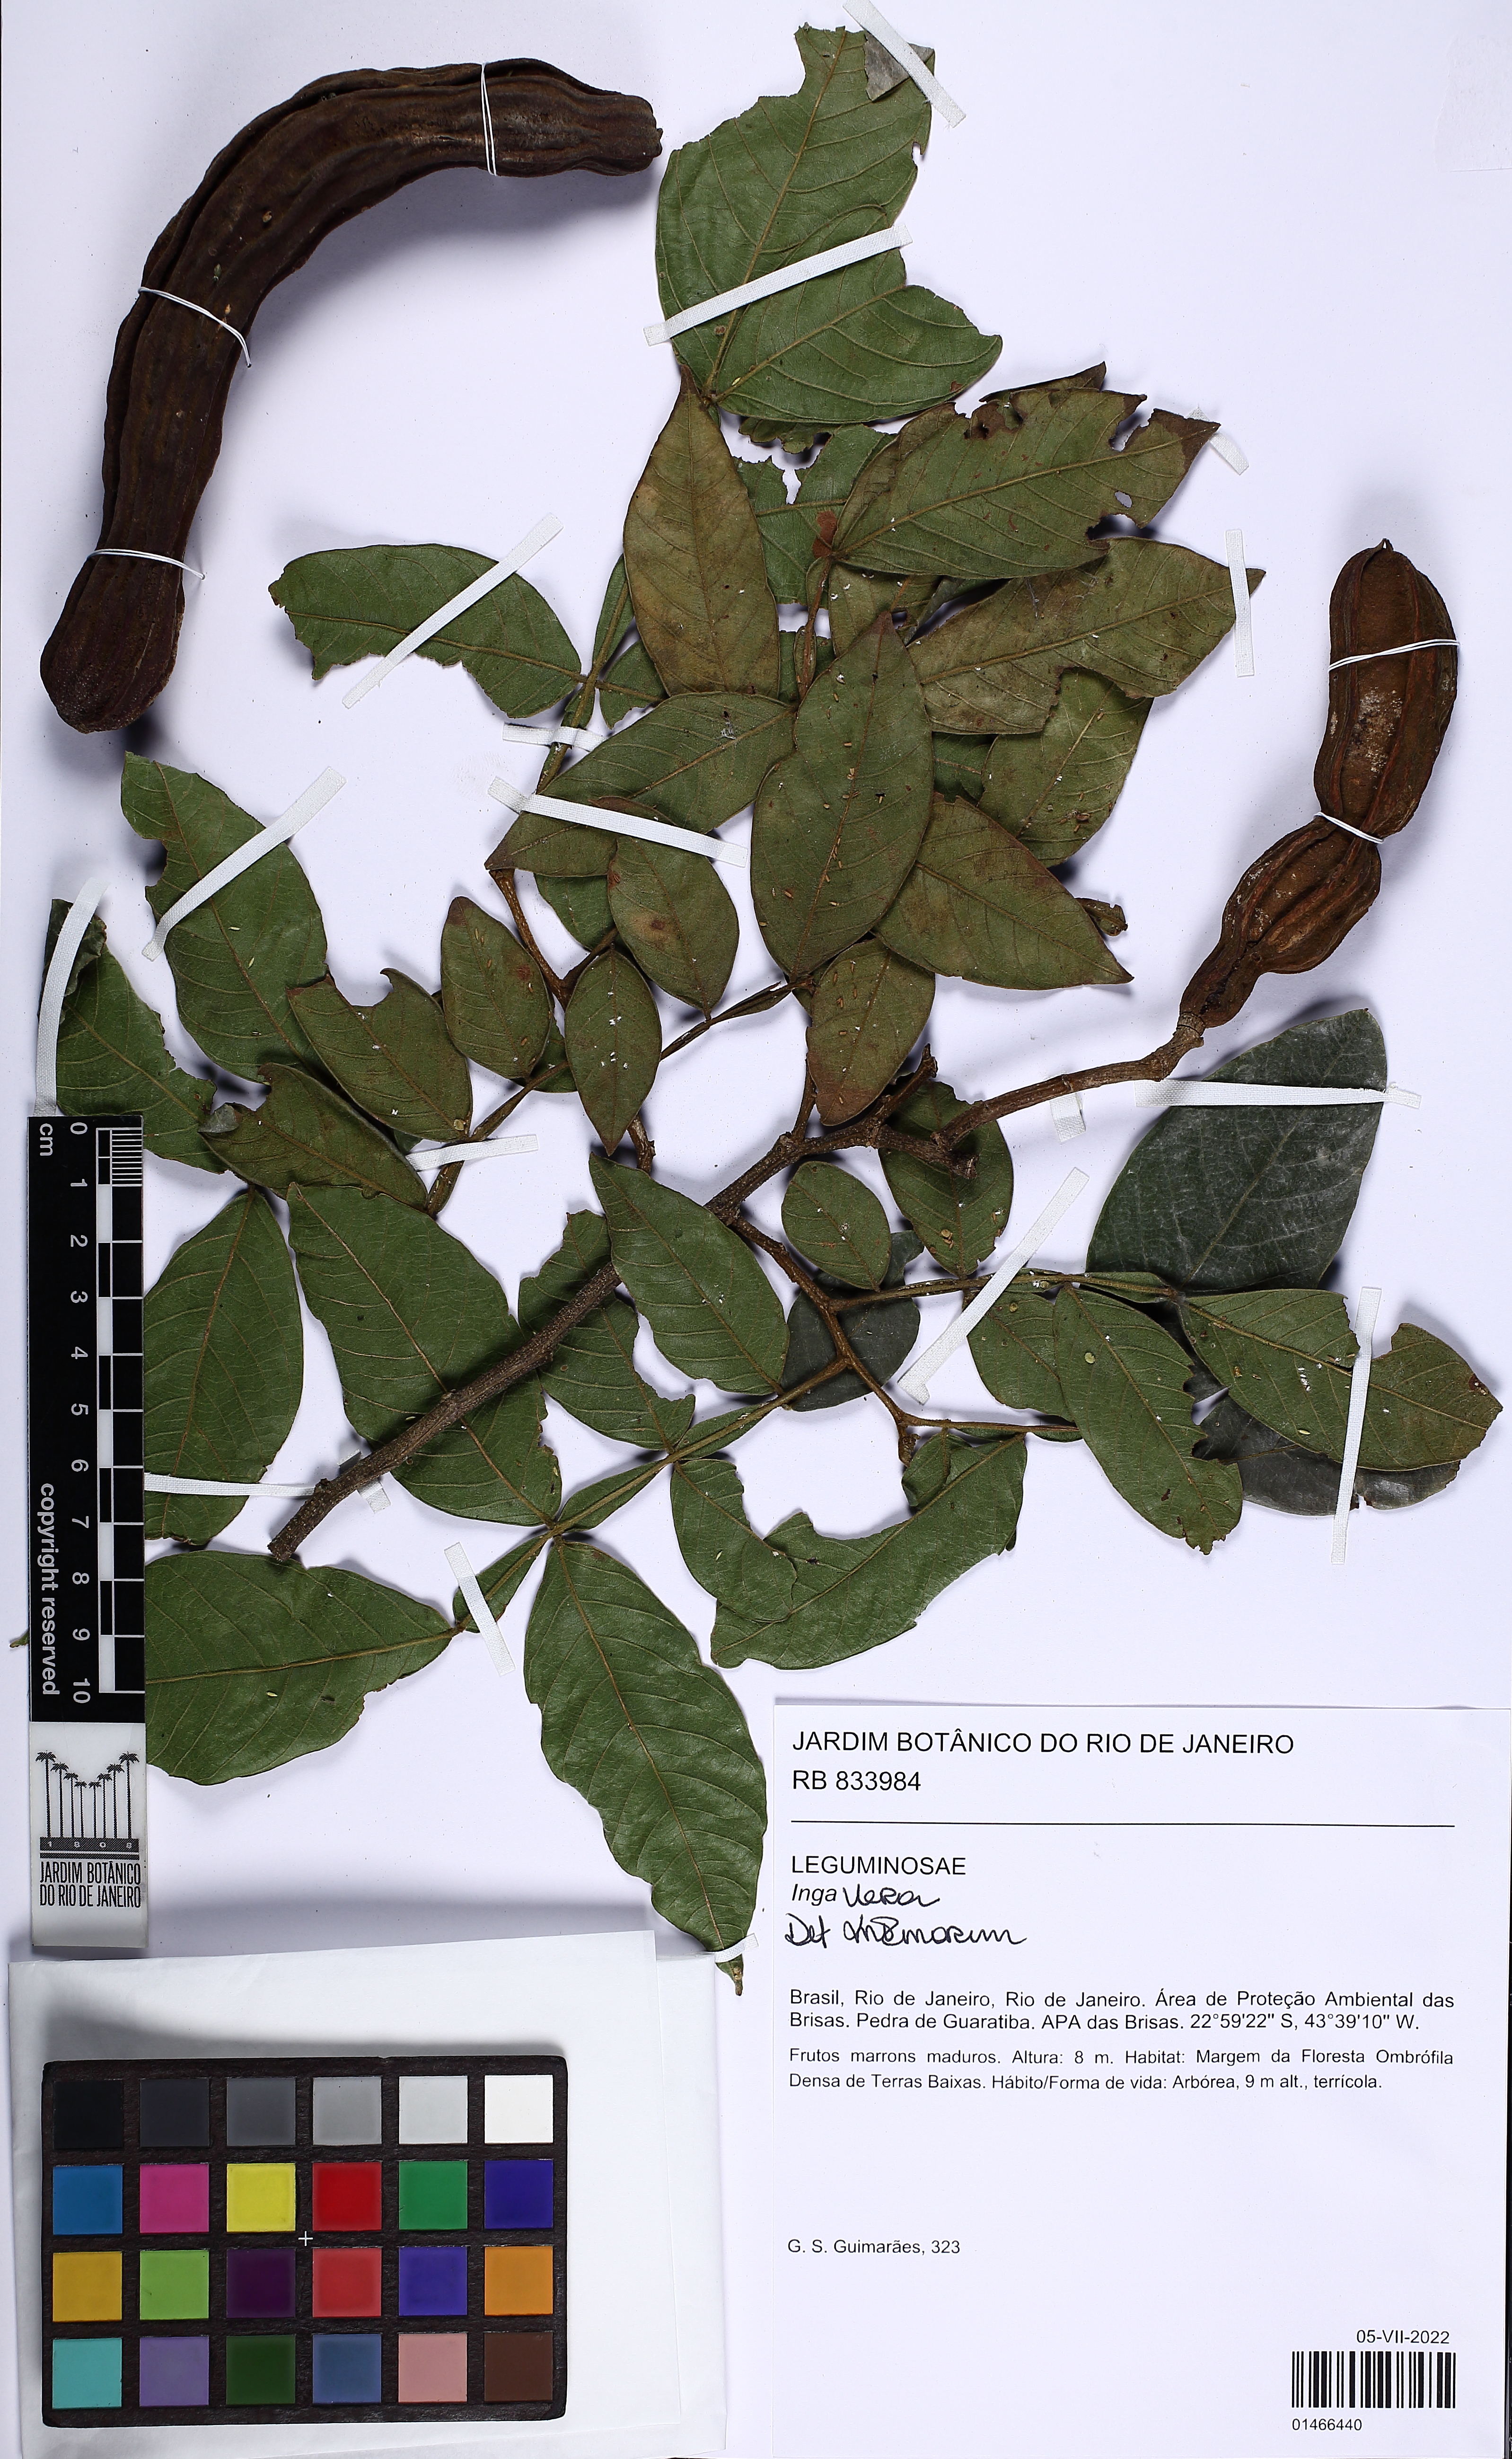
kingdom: Plantae
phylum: Tracheophyta
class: Magnoliopsida
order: Fabales
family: Fabaceae
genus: Inga
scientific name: Inga vera
